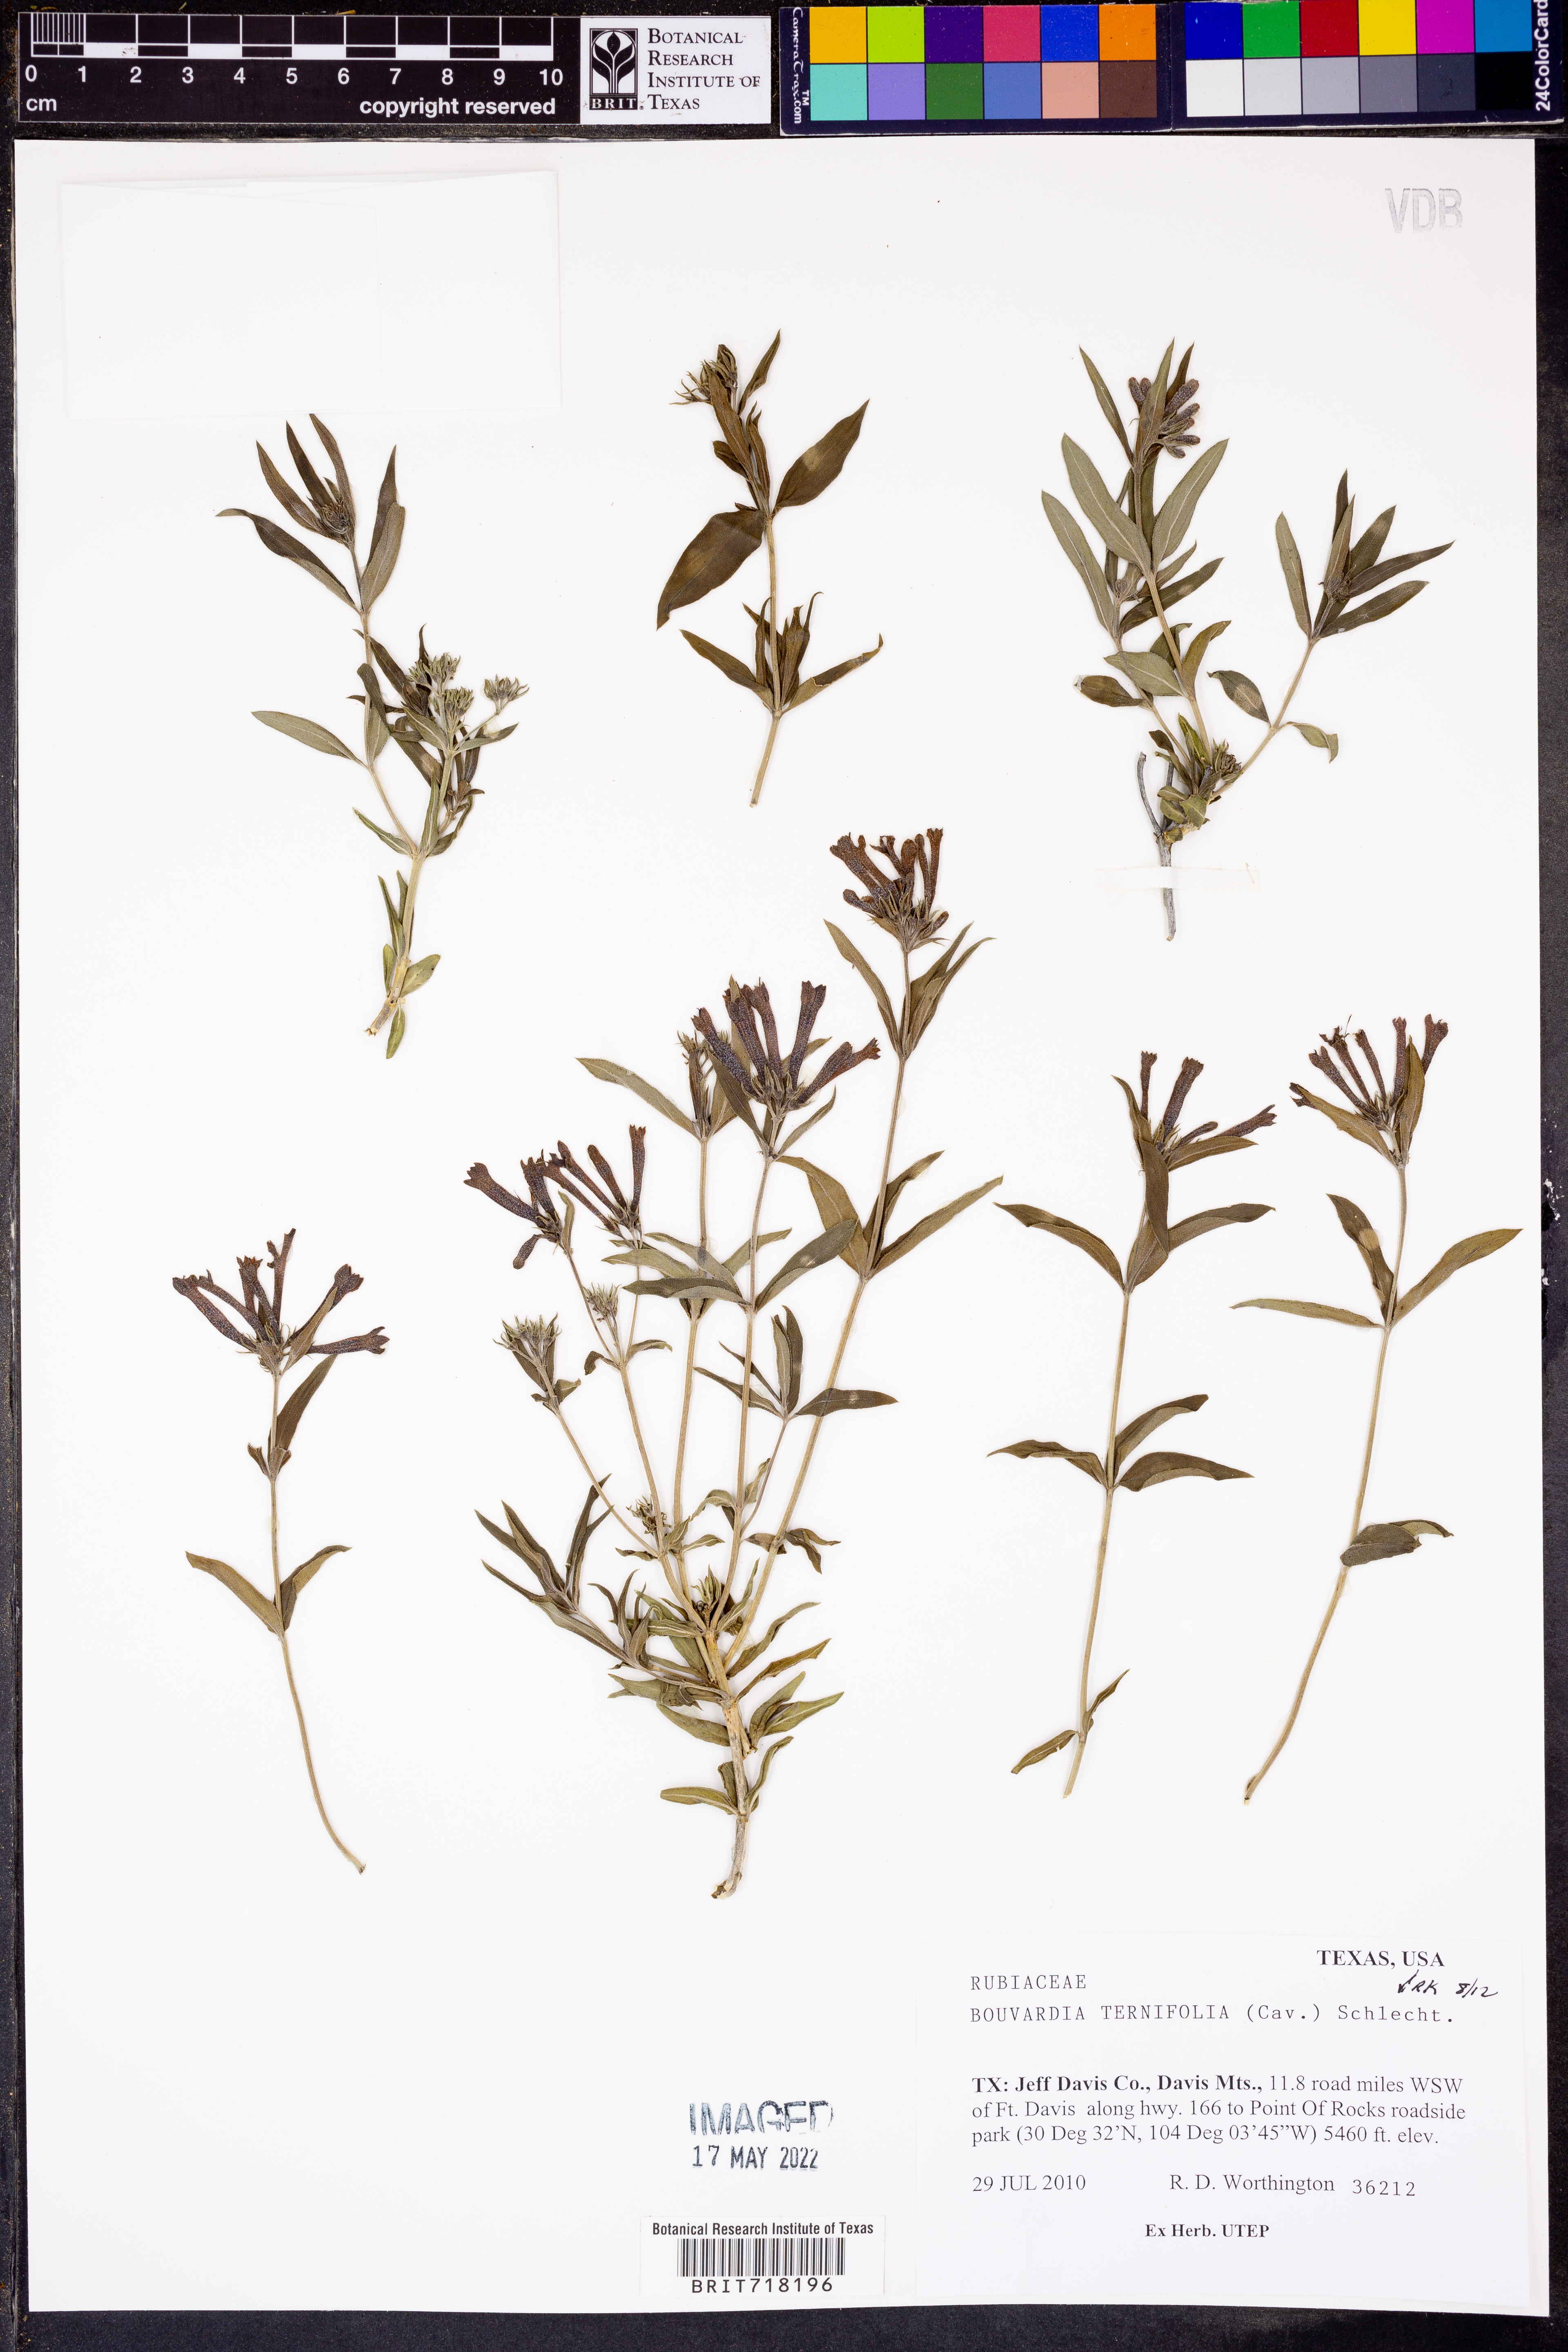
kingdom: Plantae
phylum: Tracheophyta
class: Magnoliopsida
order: Gentianales
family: Rubiaceae
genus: Bouvardia
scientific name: Bouvardia ternifolia
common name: Scarlet bouvardia
